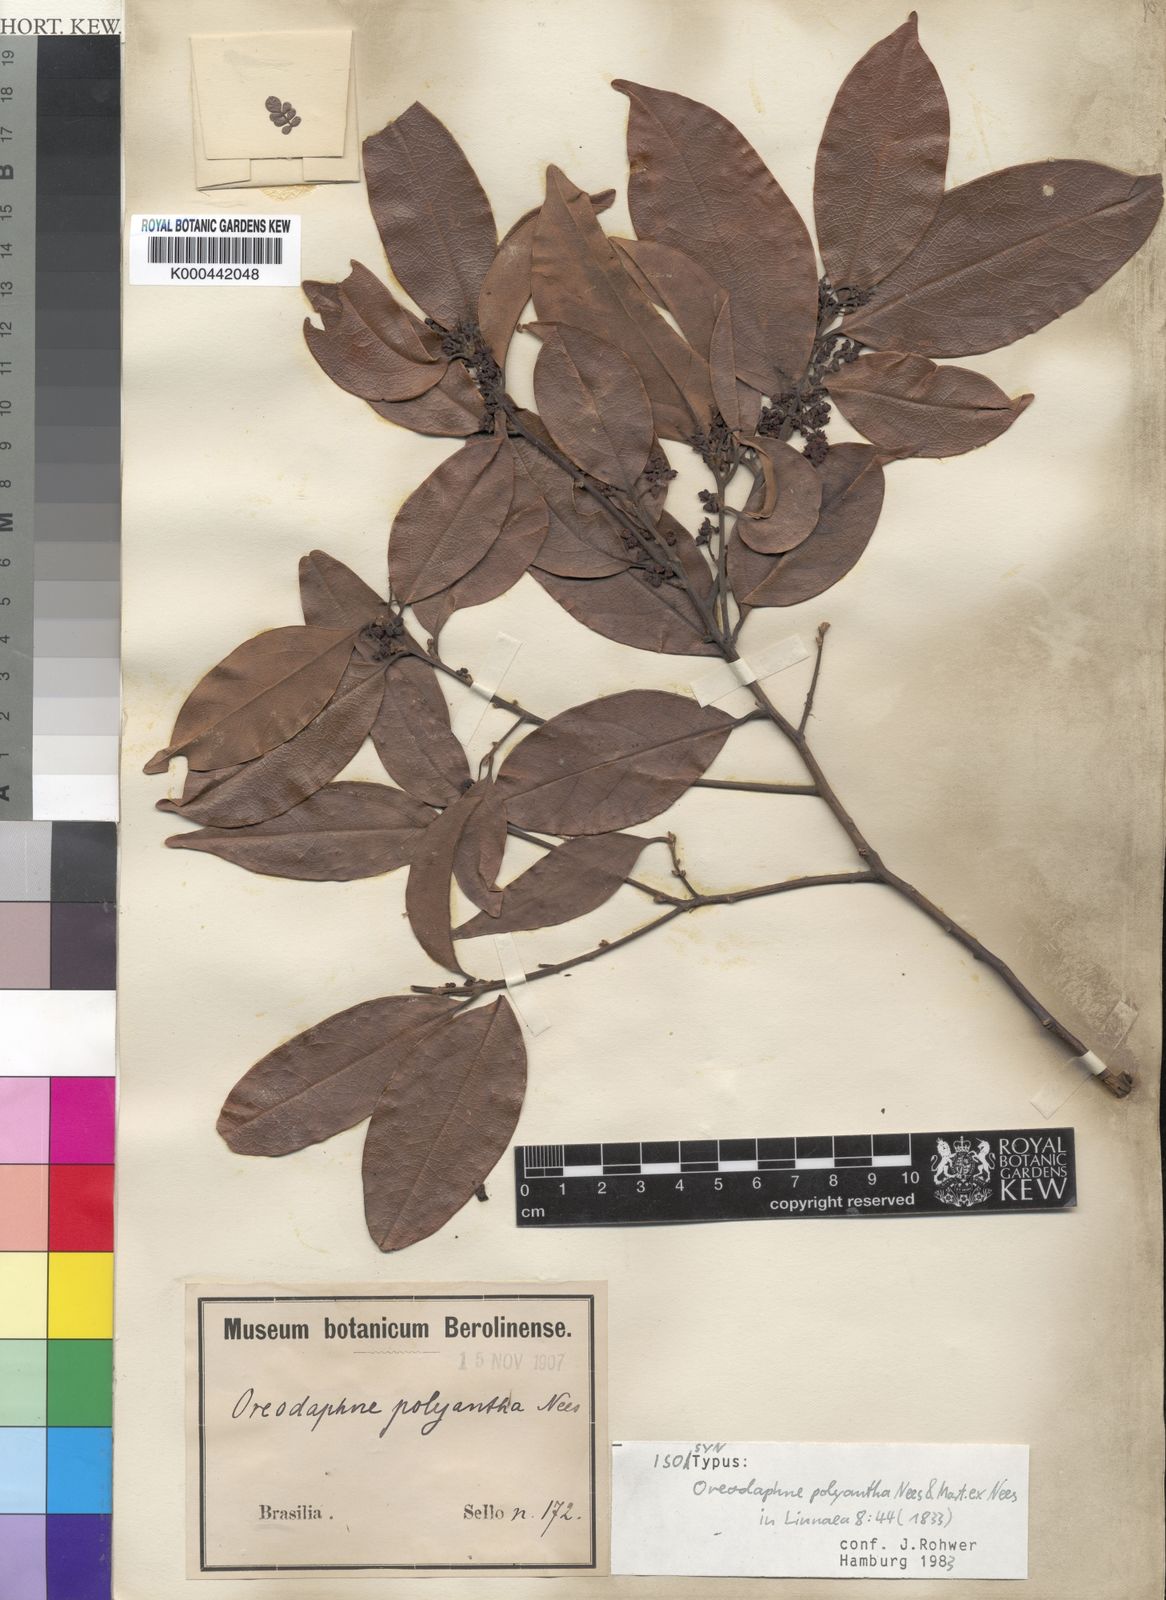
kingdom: Plantae
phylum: Tracheophyta
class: Magnoliopsida
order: Laurales
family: Lauraceae
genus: Ocotea
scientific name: Ocotea polyantha
